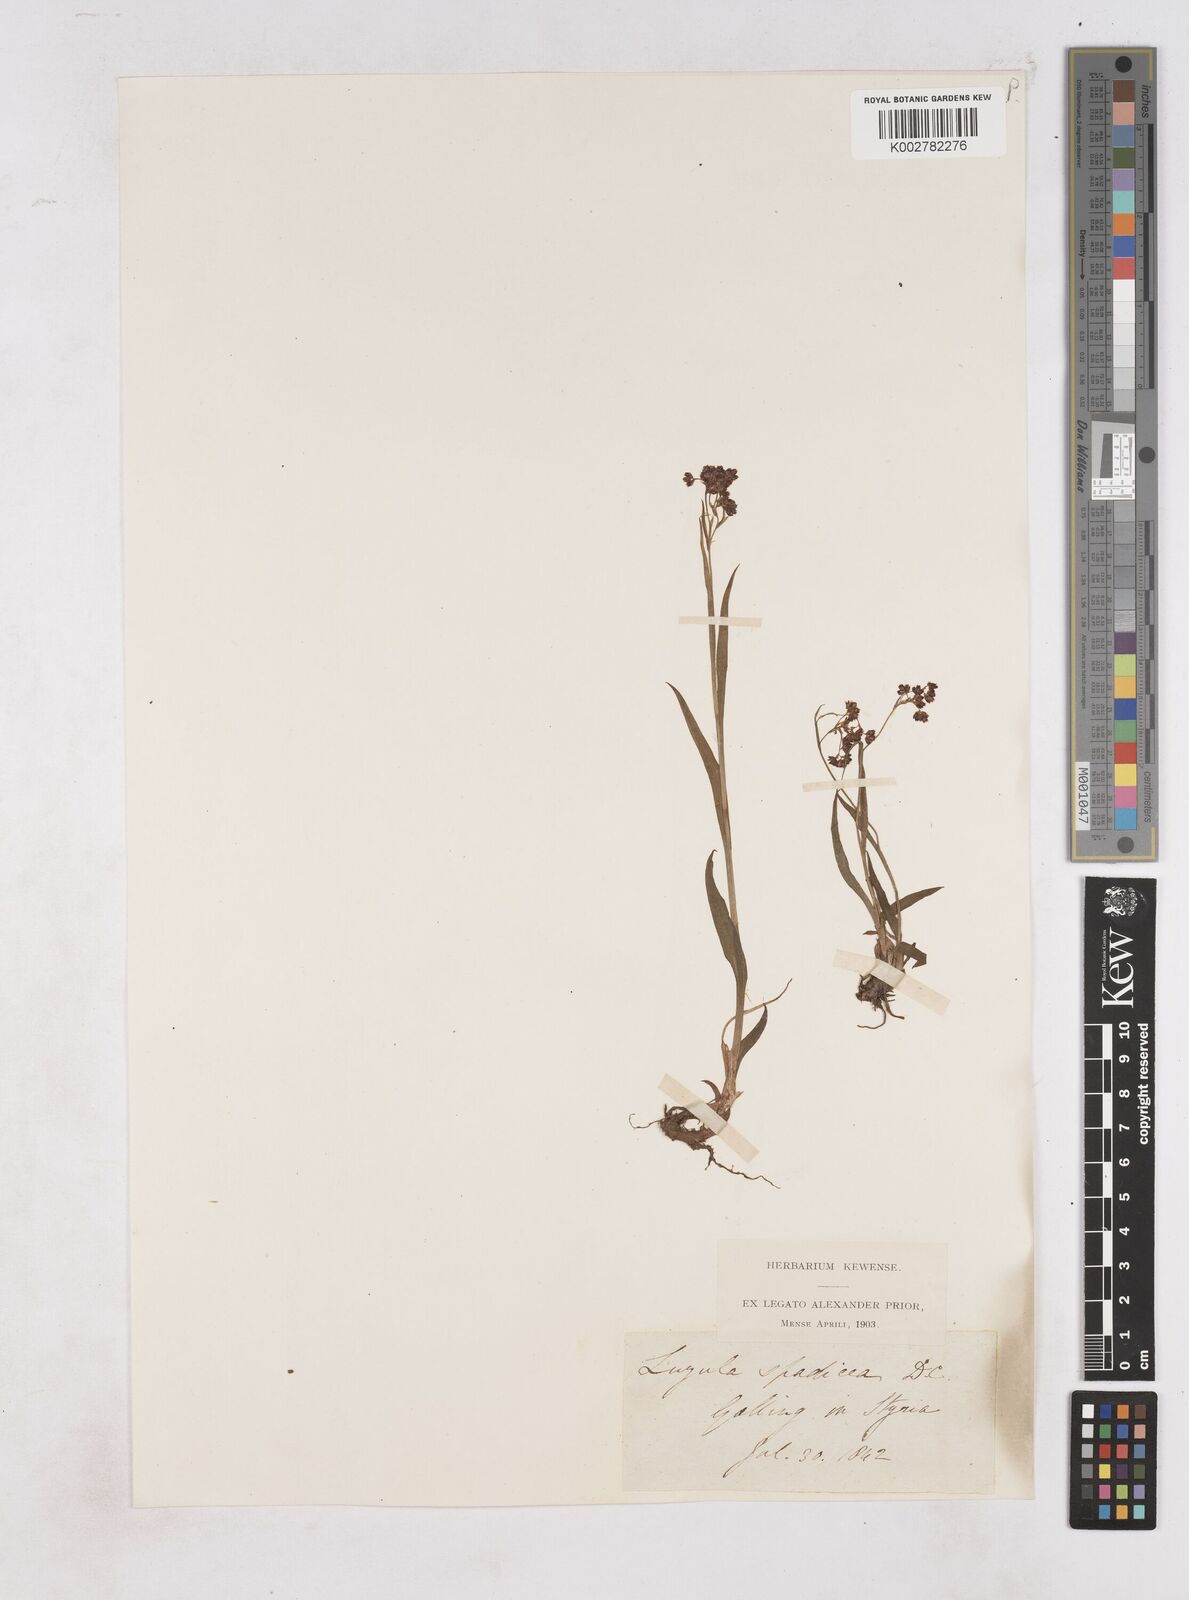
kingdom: Plantae
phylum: Tracheophyta
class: Liliopsida
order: Poales
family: Juncaceae
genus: Luzula
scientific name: Luzula alpinopilosa
